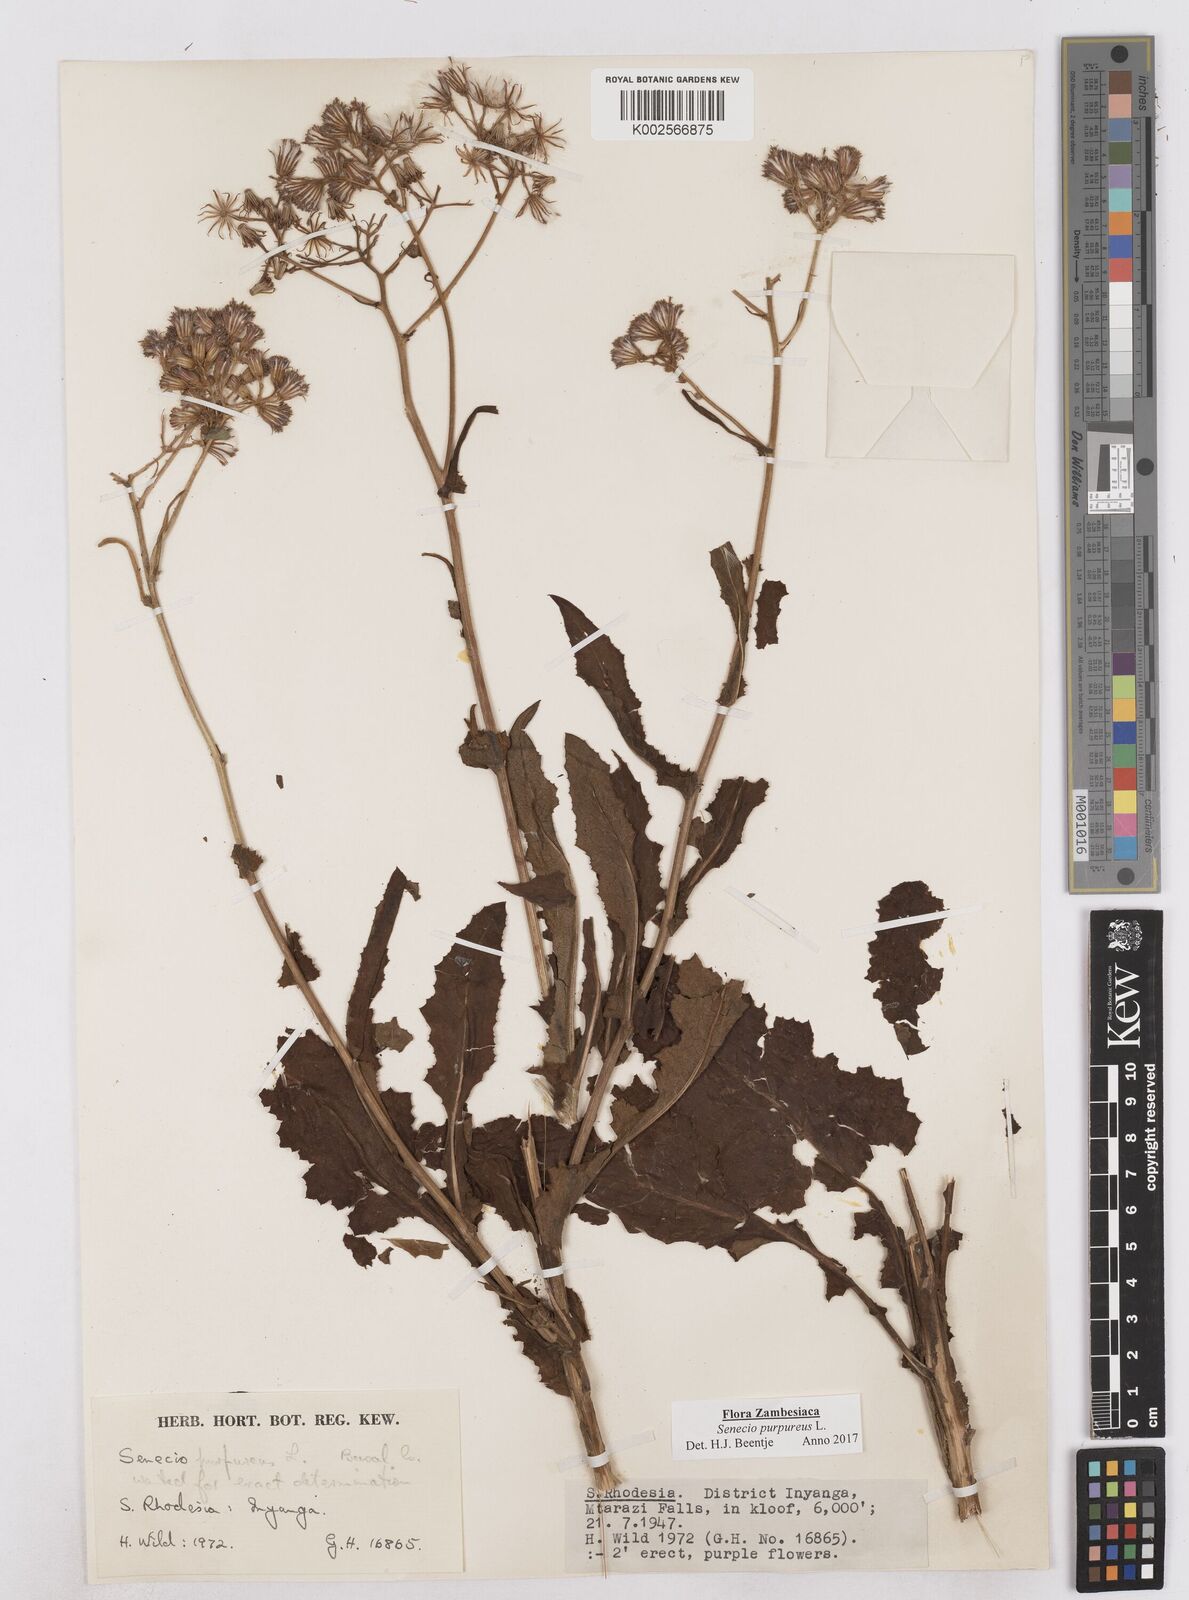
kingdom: Plantae
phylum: Tracheophyta
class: Magnoliopsida
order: Asterales
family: Asteraceae
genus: Senecio
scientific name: Senecio purpureus
